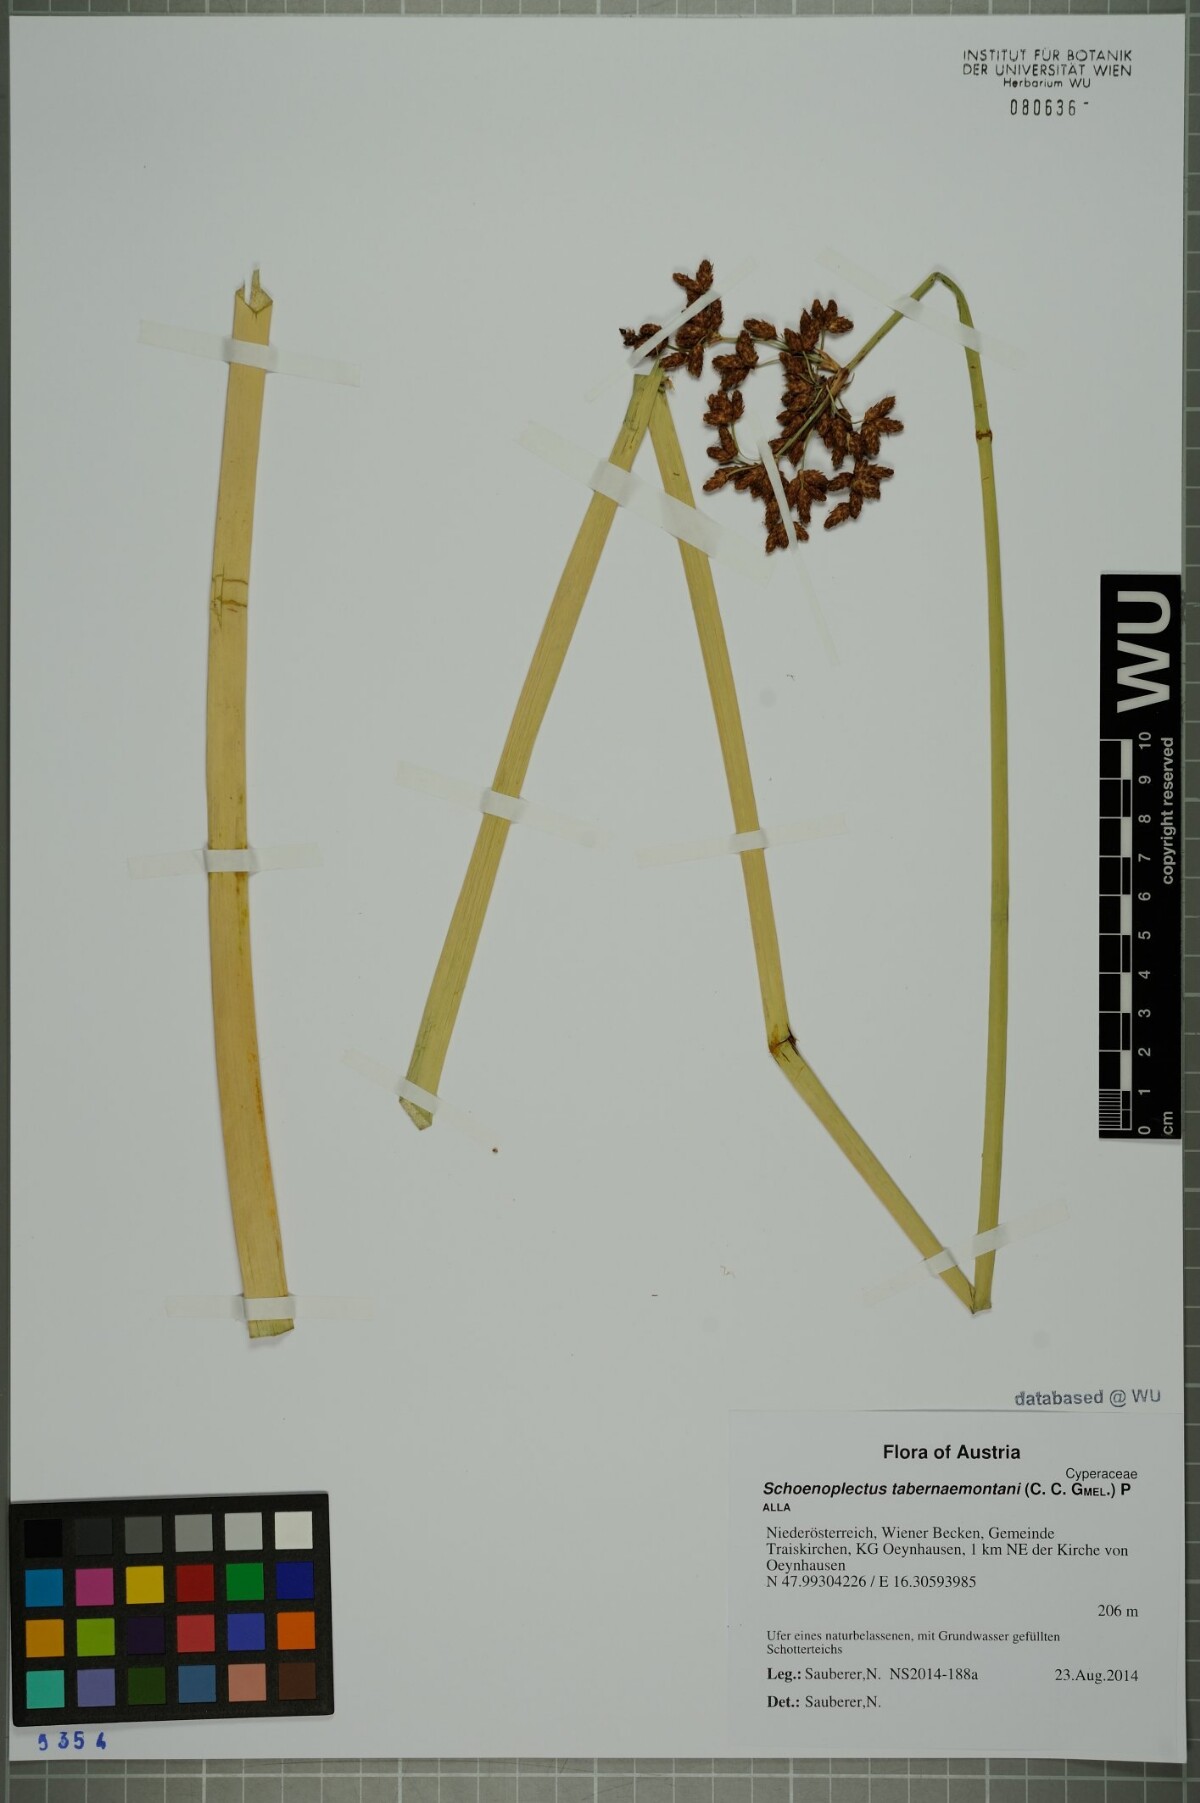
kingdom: Plantae
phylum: Tracheophyta
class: Liliopsida
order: Poales
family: Cyperaceae
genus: Schoenoplectus
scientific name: Schoenoplectus tabernaemontani
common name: Grey club-rush
